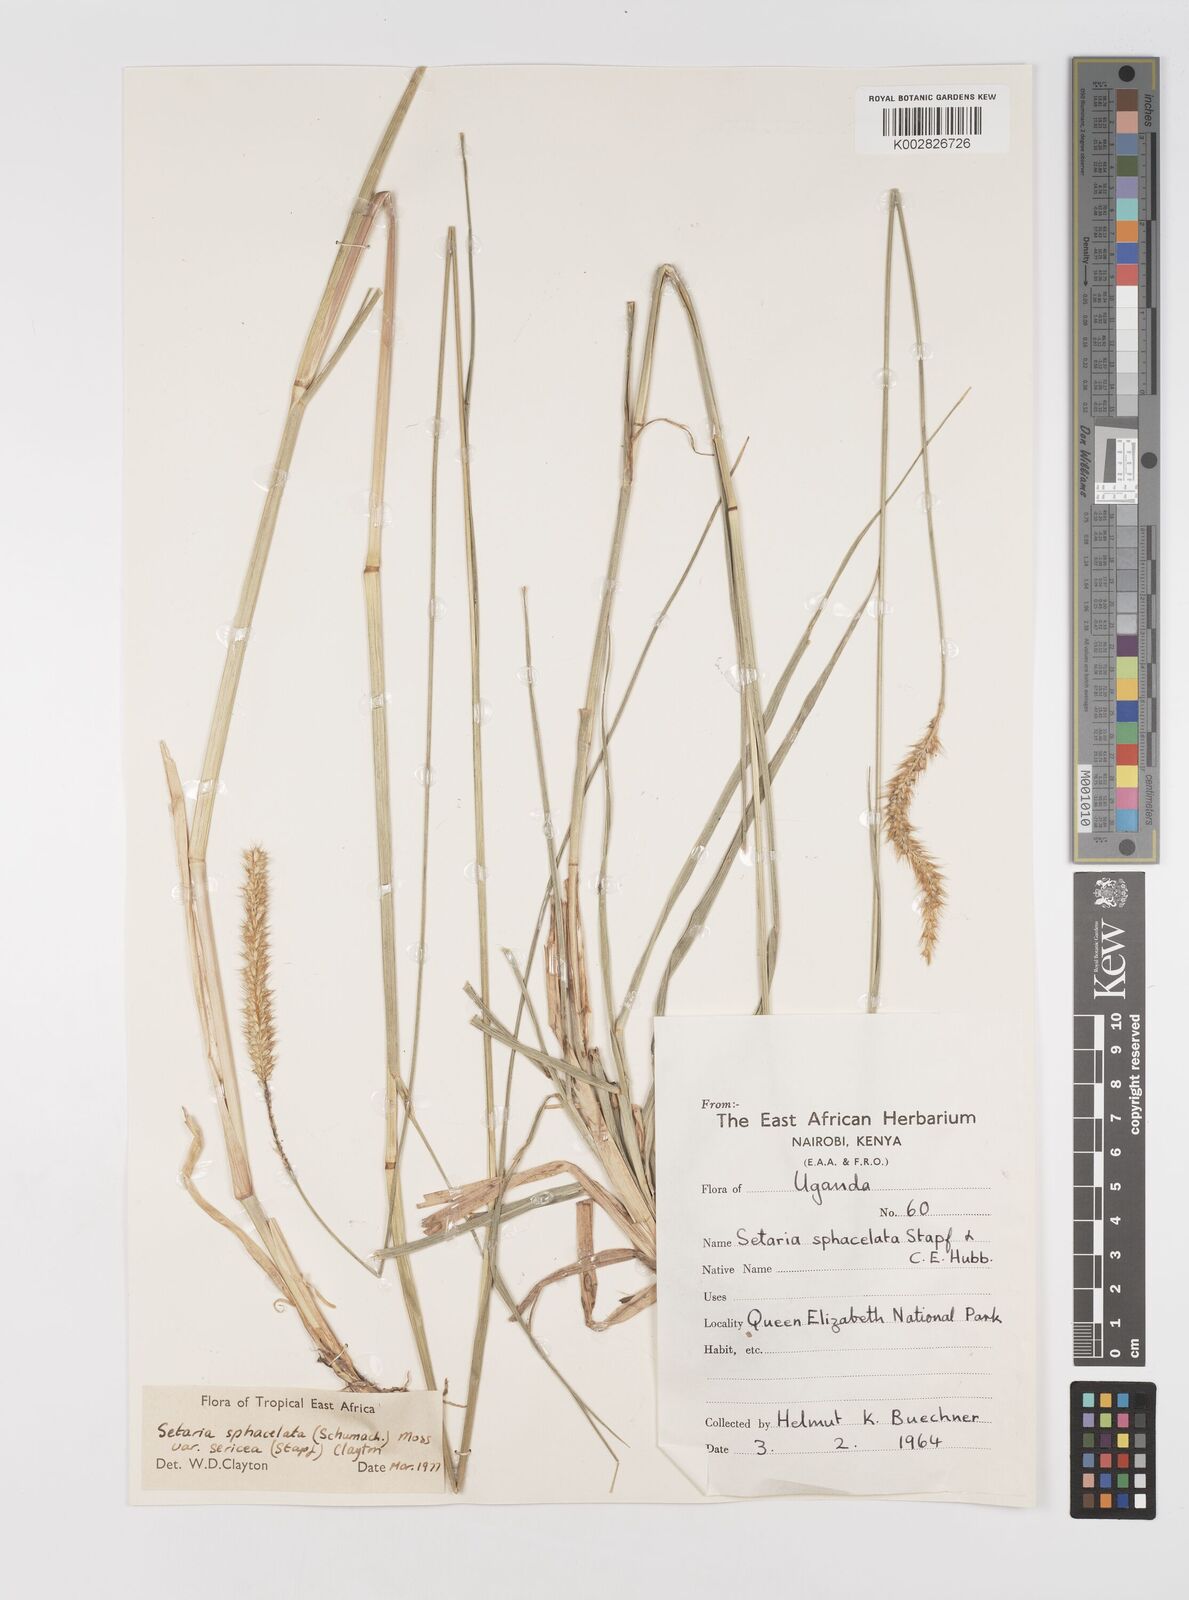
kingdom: Plantae
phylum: Tracheophyta
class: Liliopsida
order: Poales
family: Poaceae
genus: Setaria
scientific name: Setaria sphacelata
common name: African bristlegrass
